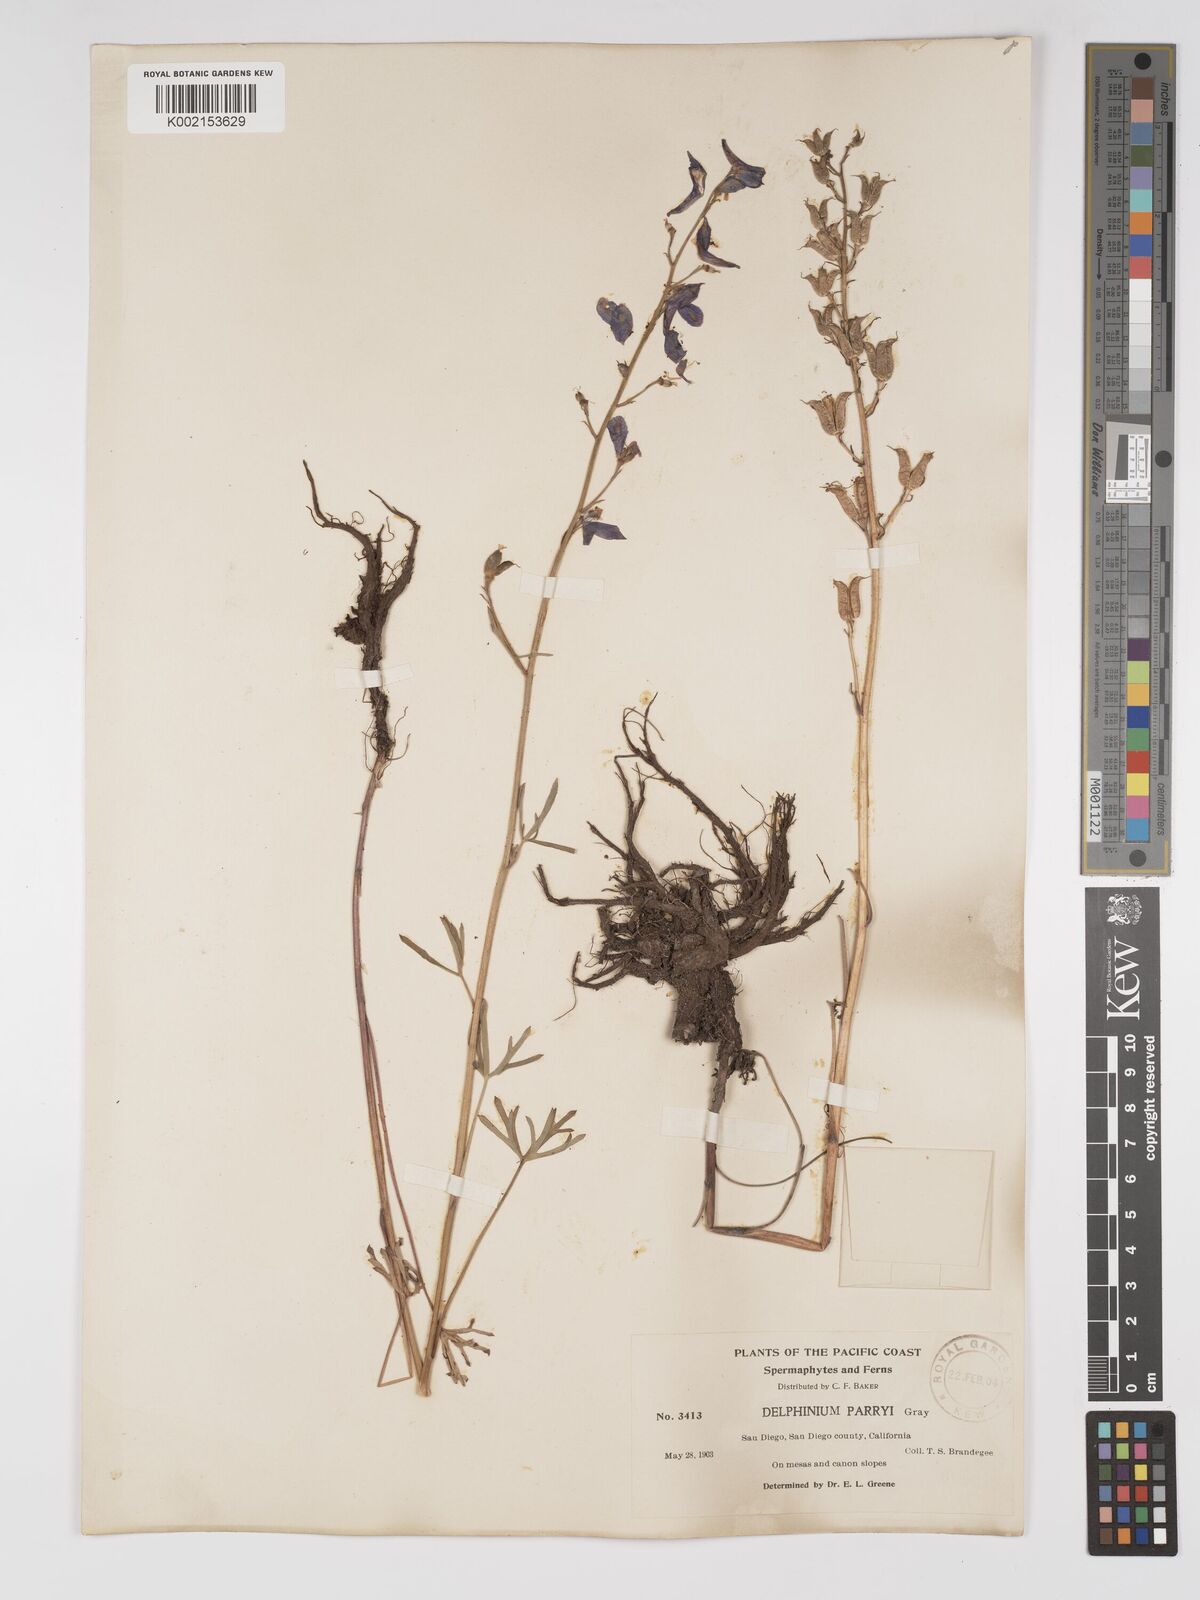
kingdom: Plantae
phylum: Tracheophyta
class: Magnoliopsida
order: Ranunculales
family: Ranunculaceae
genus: Delphinium
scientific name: Delphinium parryi
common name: Parry's larkspur
